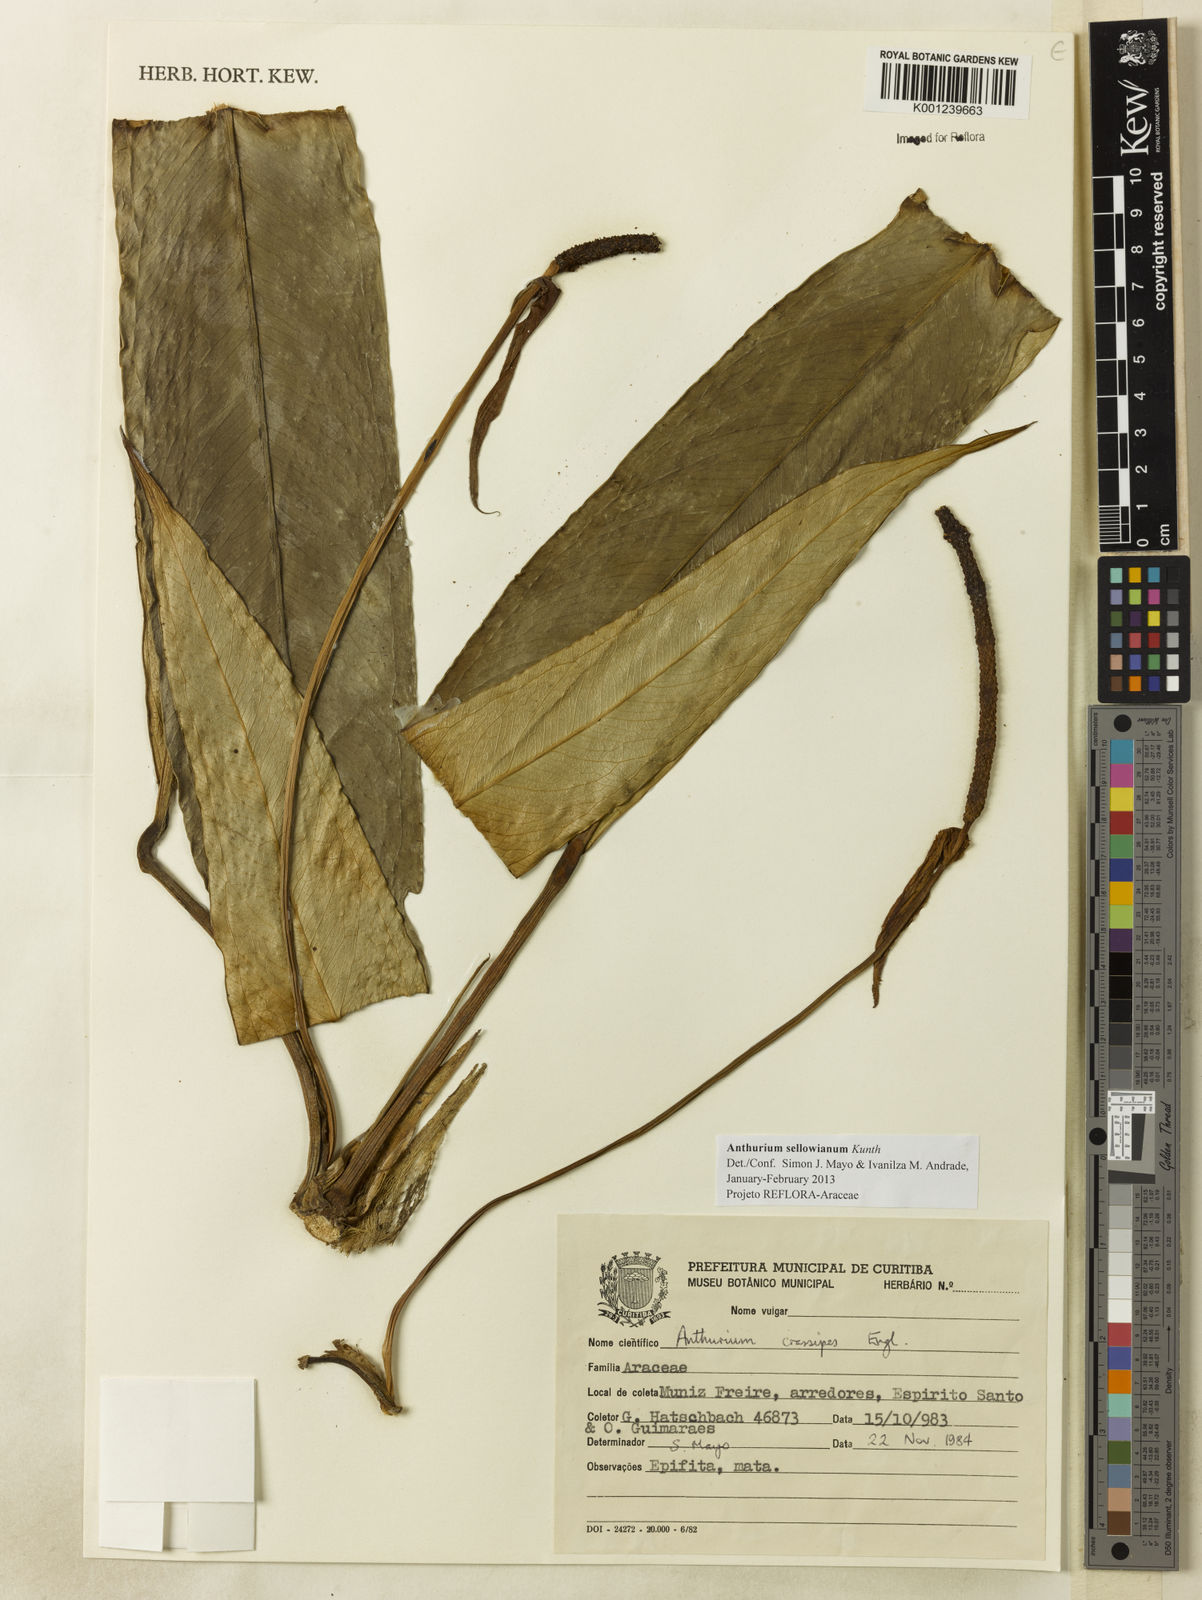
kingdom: Plantae
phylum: Tracheophyta
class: Liliopsida
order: Alismatales
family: Araceae
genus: Anthurium
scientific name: Anthurium sellowianum
